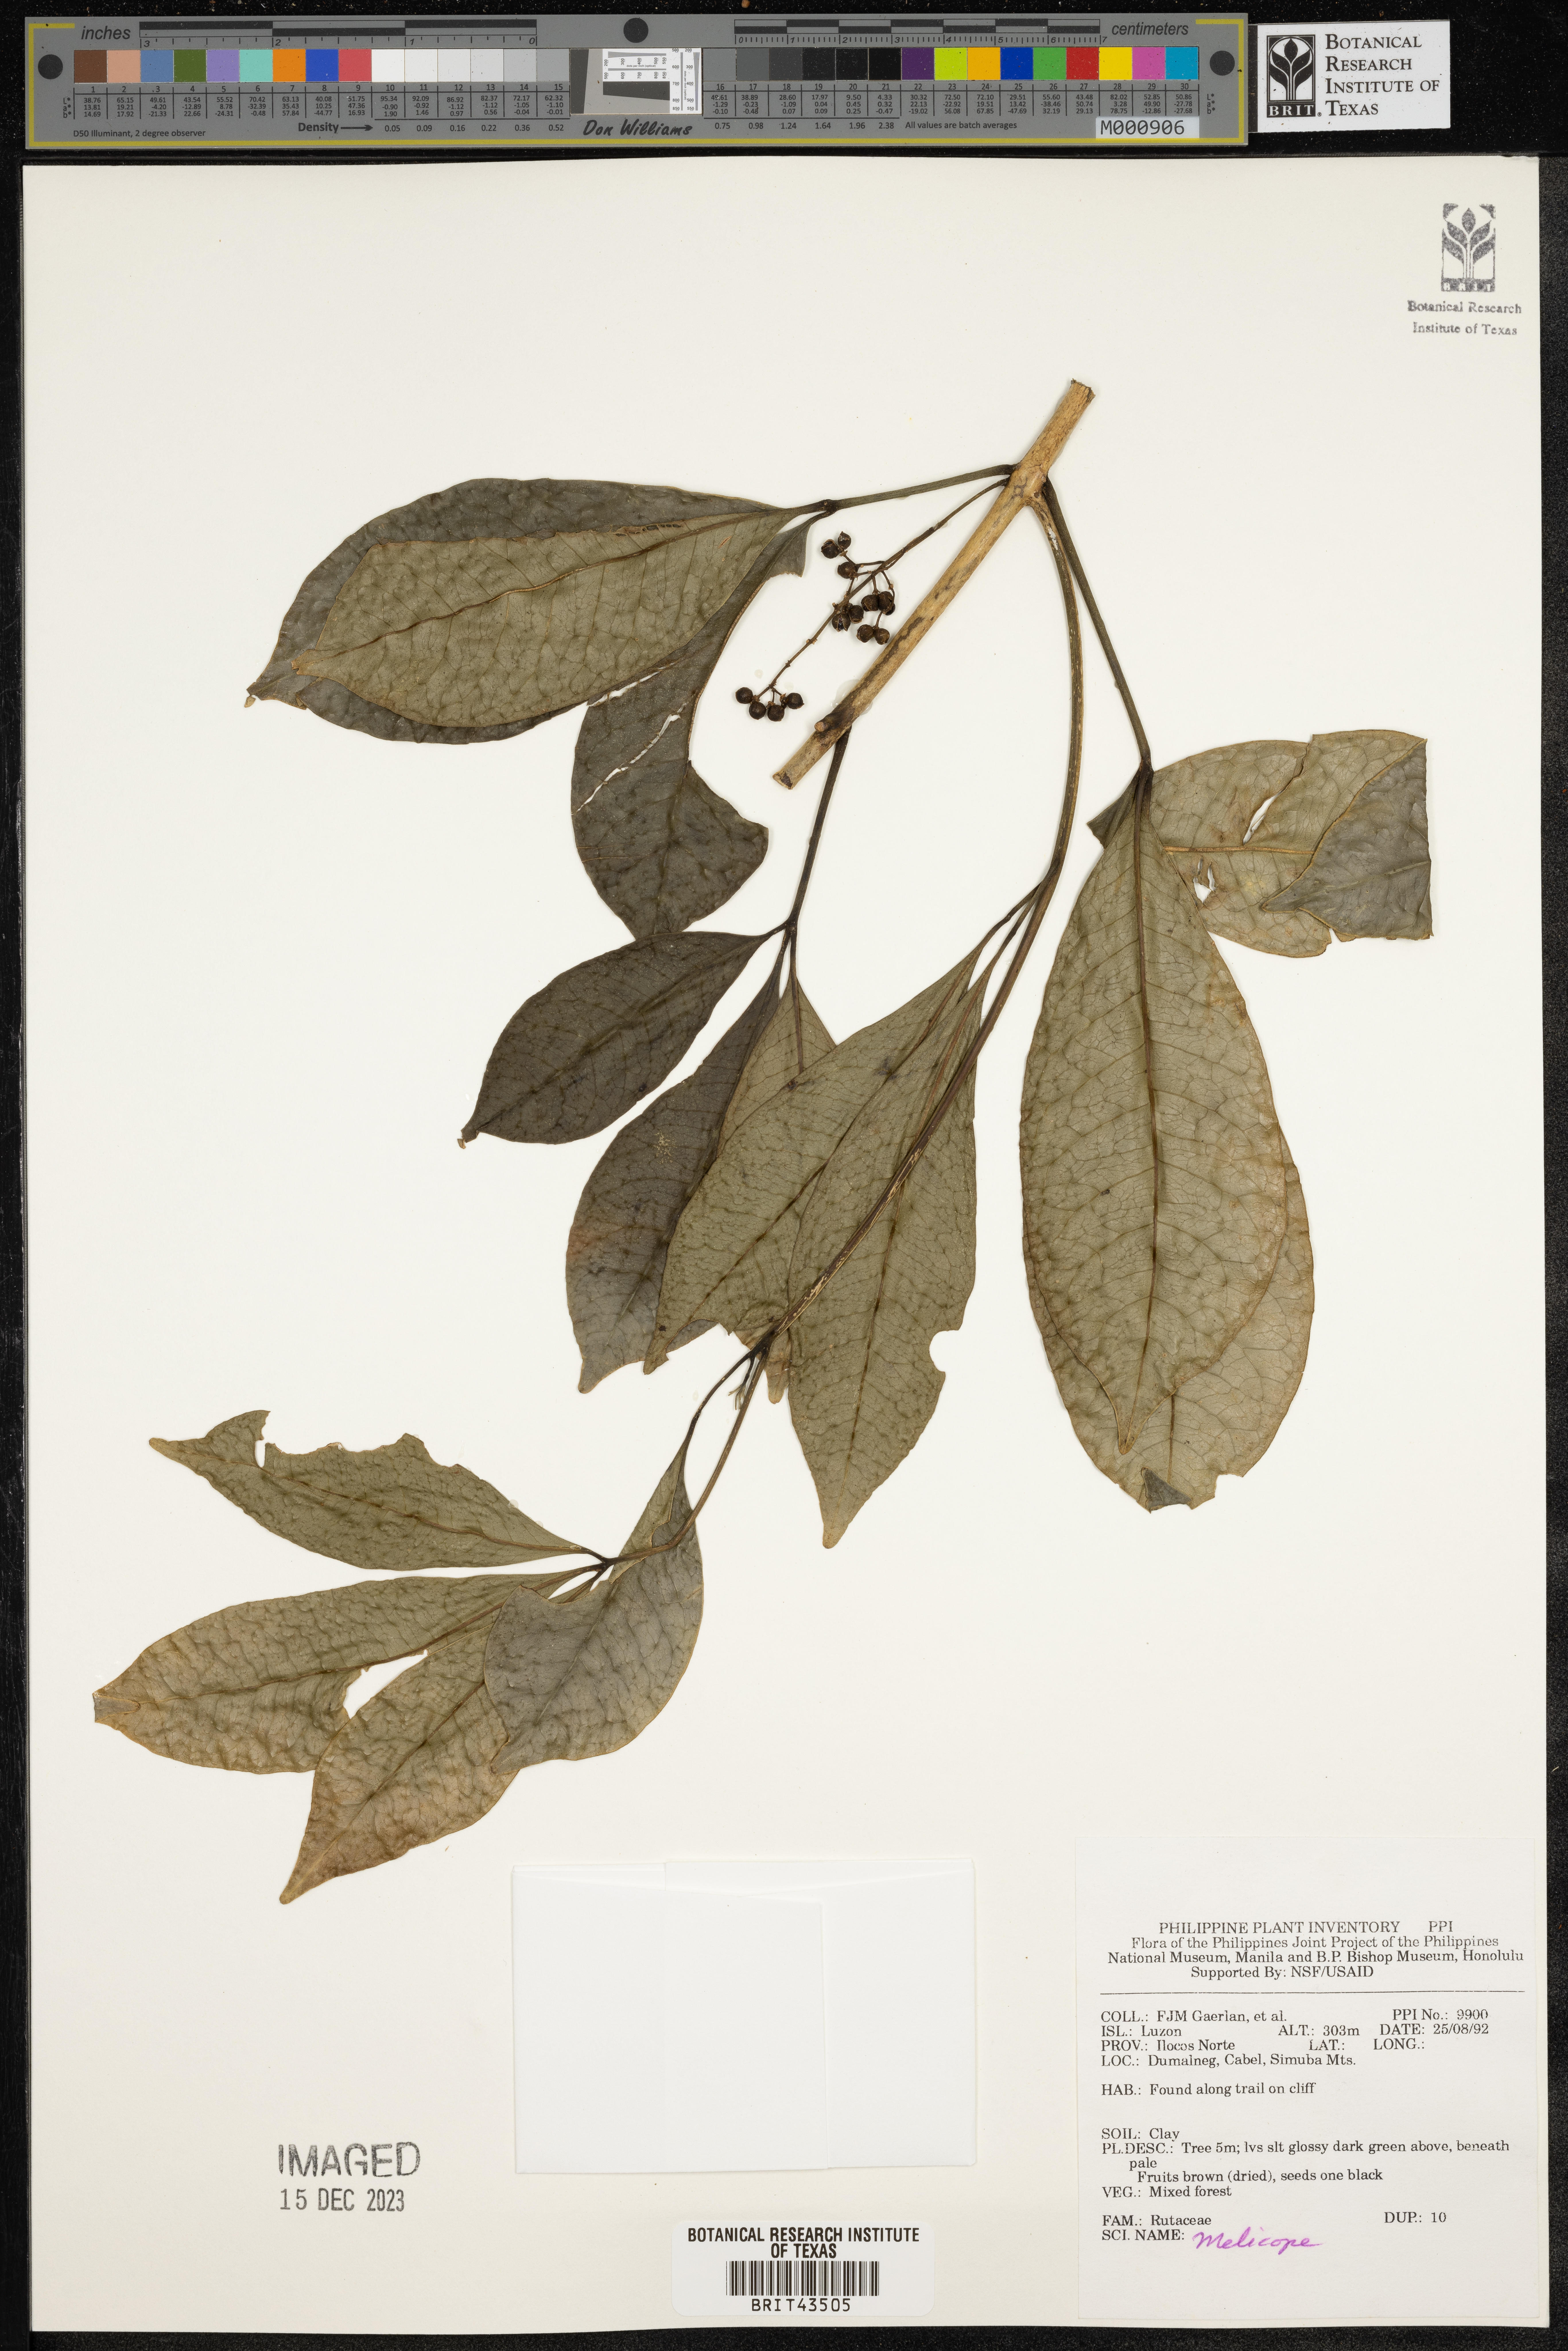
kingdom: Plantae
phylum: Tracheophyta
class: Magnoliopsida
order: Sapindales
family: Rutaceae
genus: Melicope
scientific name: Melicope
